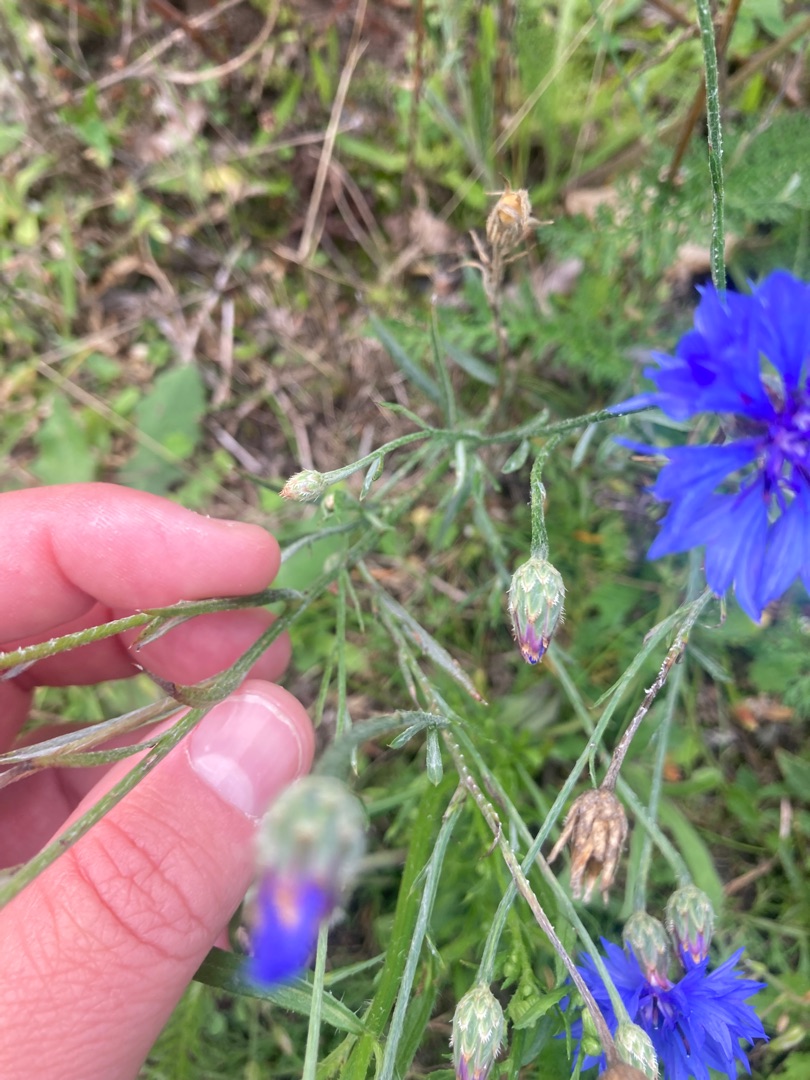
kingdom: Plantae
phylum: Tracheophyta
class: Magnoliopsida
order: Asterales
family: Asteraceae
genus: Centaurea
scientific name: Centaurea cyanus
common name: Kornblomst
